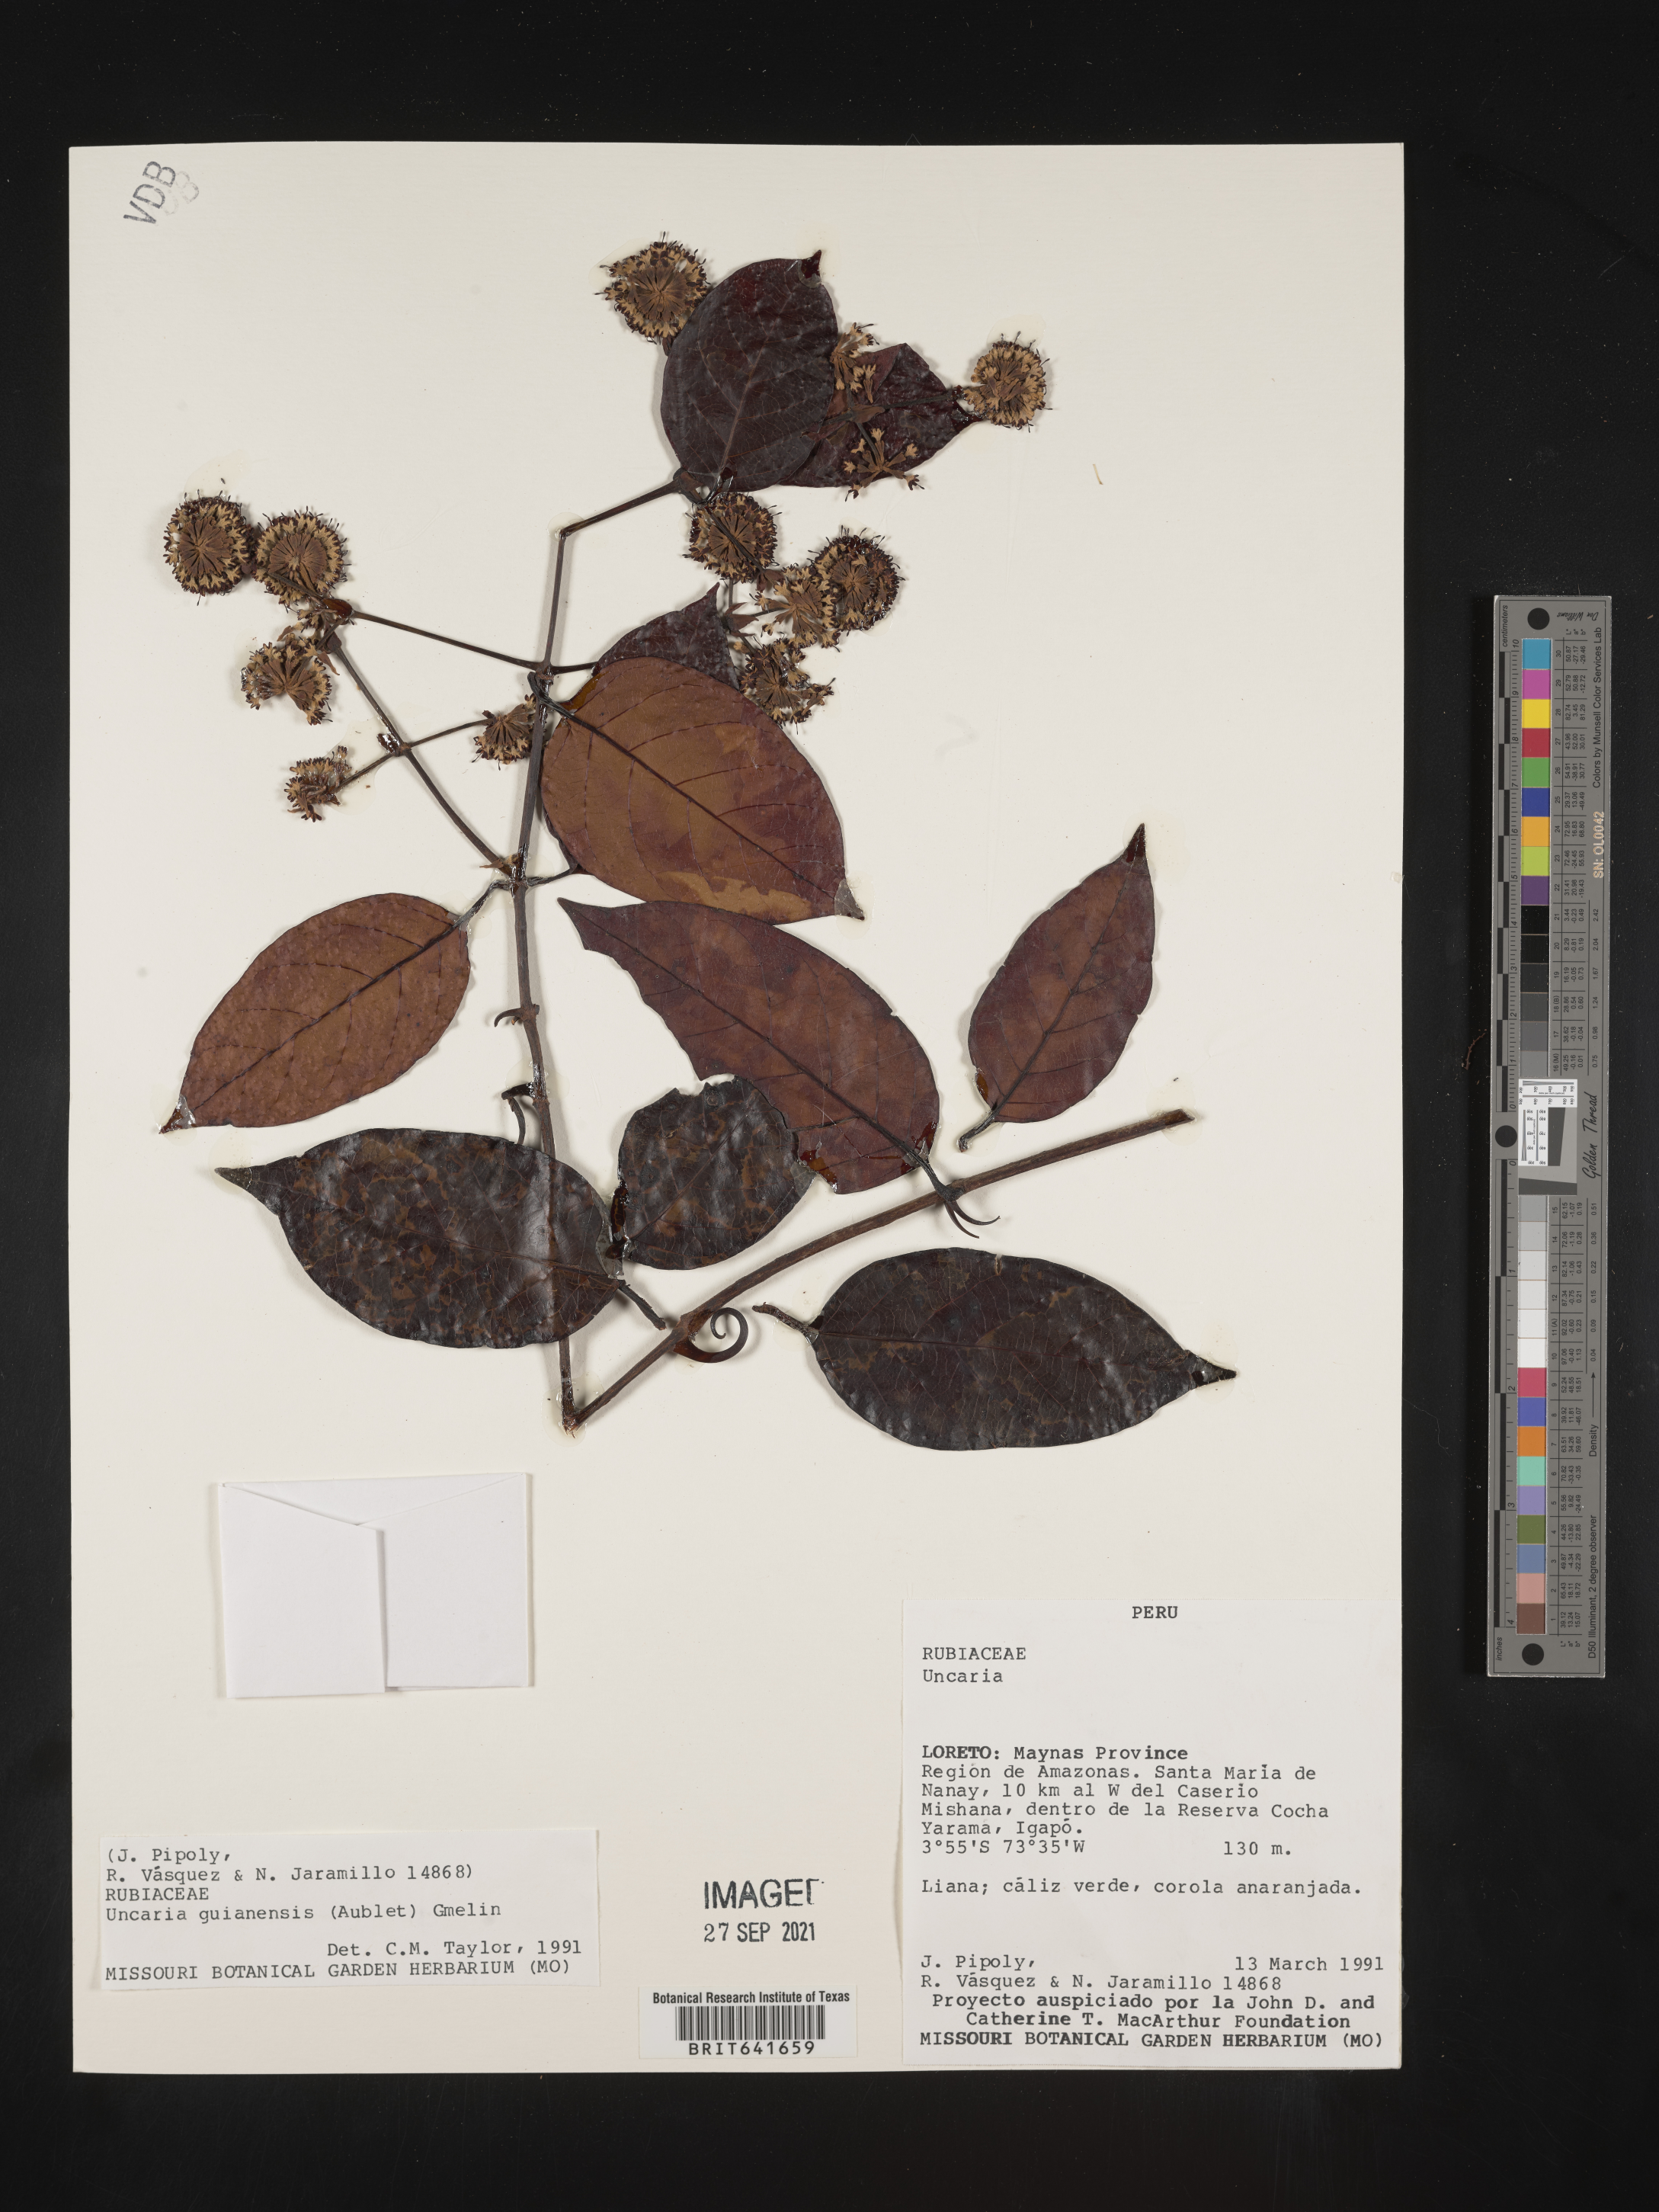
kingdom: Plantae
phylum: Tracheophyta
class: Magnoliopsida
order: Gentianales
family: Rubiaceae
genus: Uncaria
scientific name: Uncaria
